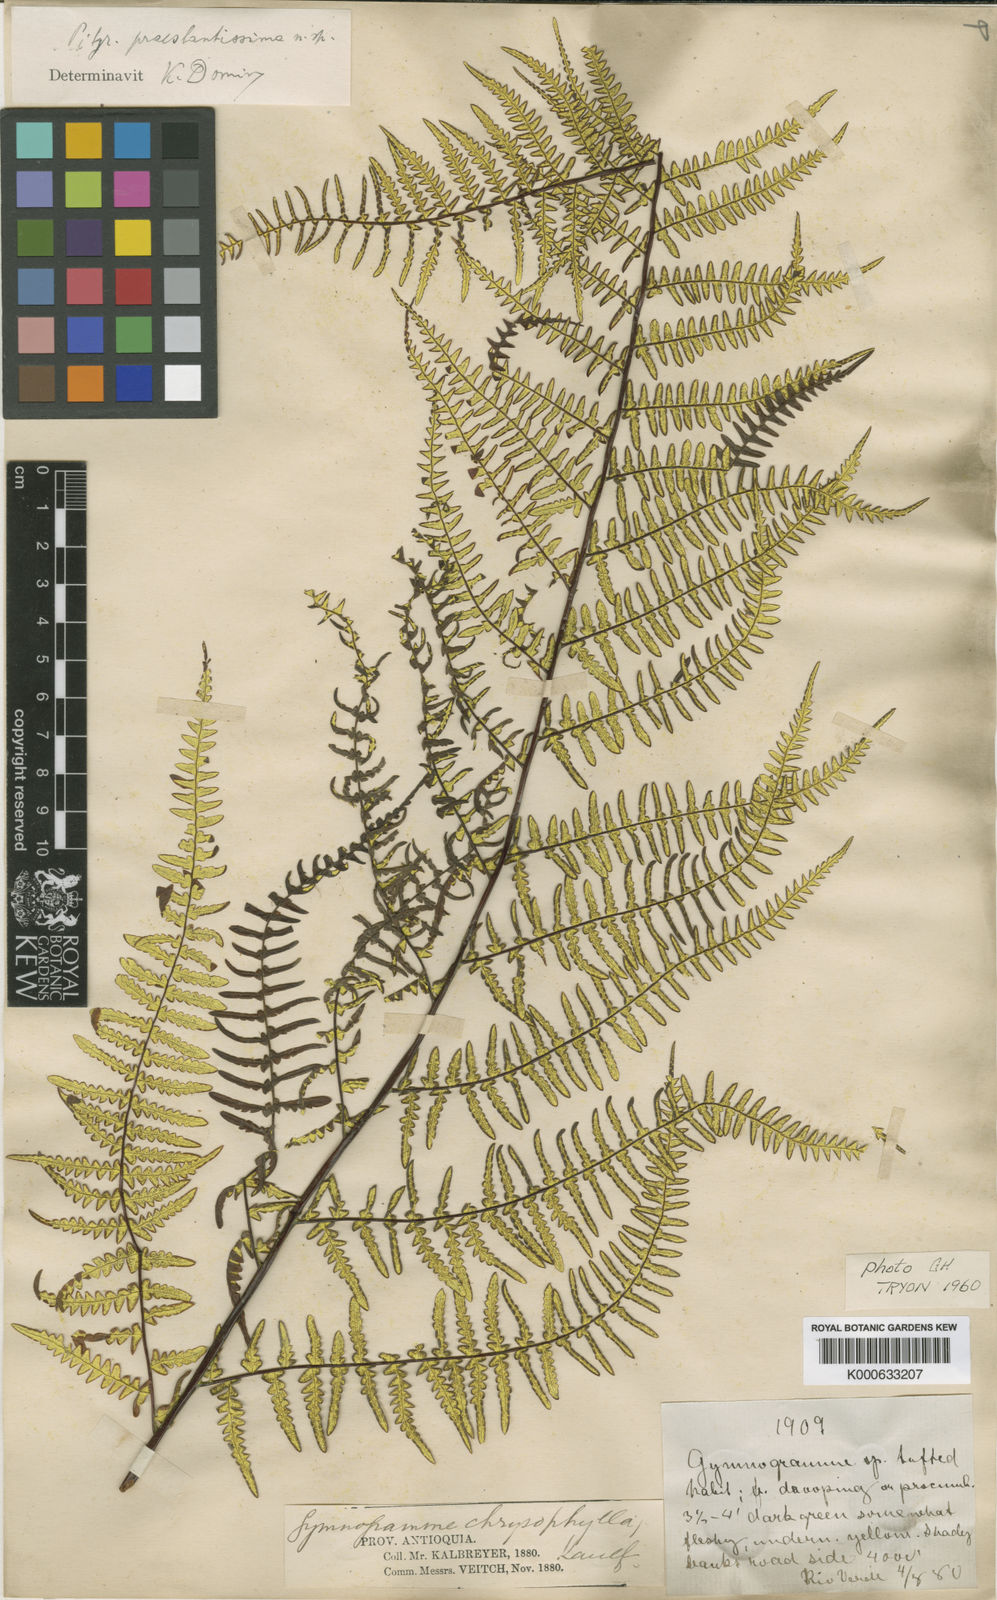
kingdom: Plantae
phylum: Tracheophyta
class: Polypodiopsida
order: Polypodiales
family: Pteridaceae
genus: Pityrogramma
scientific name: Pityrogramma ebenea
